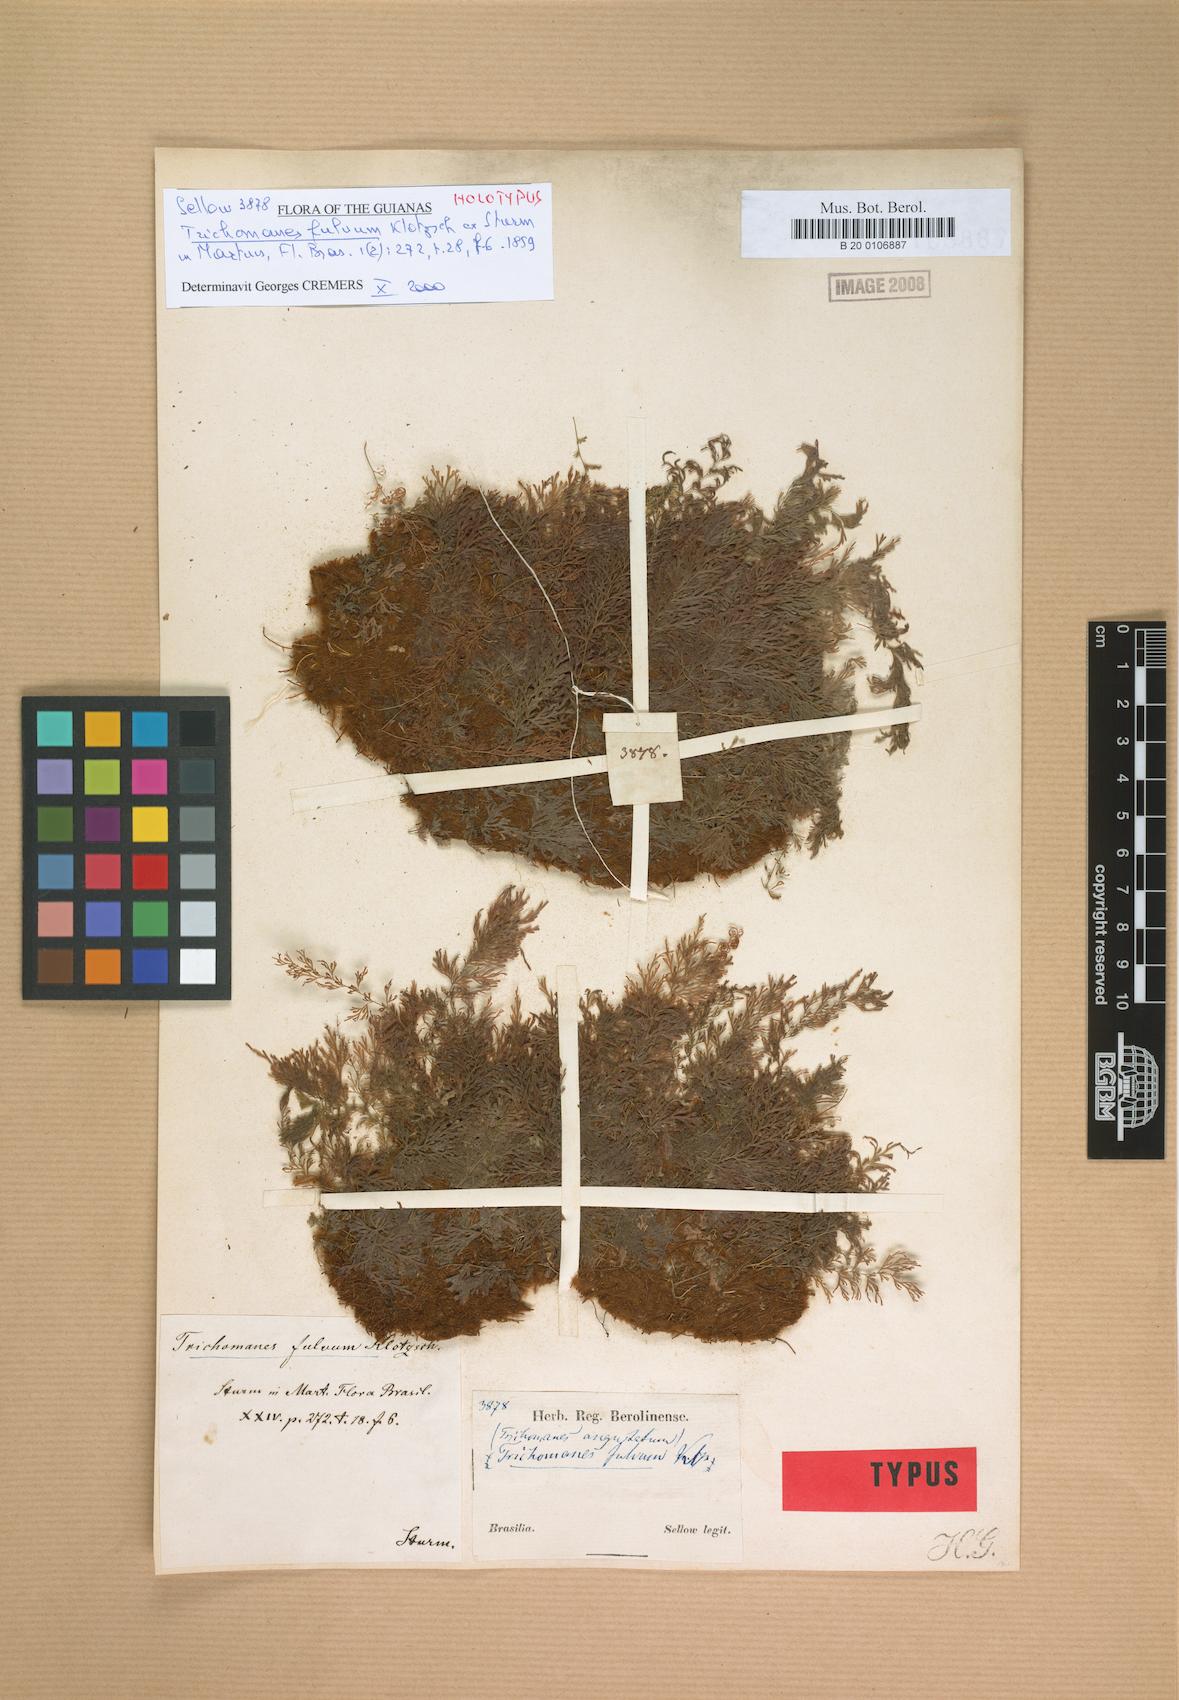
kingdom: Plantae
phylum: Tracheophyta
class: Polypodiopsida
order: Hymenophyllales
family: Hymenophyllaceae
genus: Polyphlebium
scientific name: Polyphlebium angustatum
